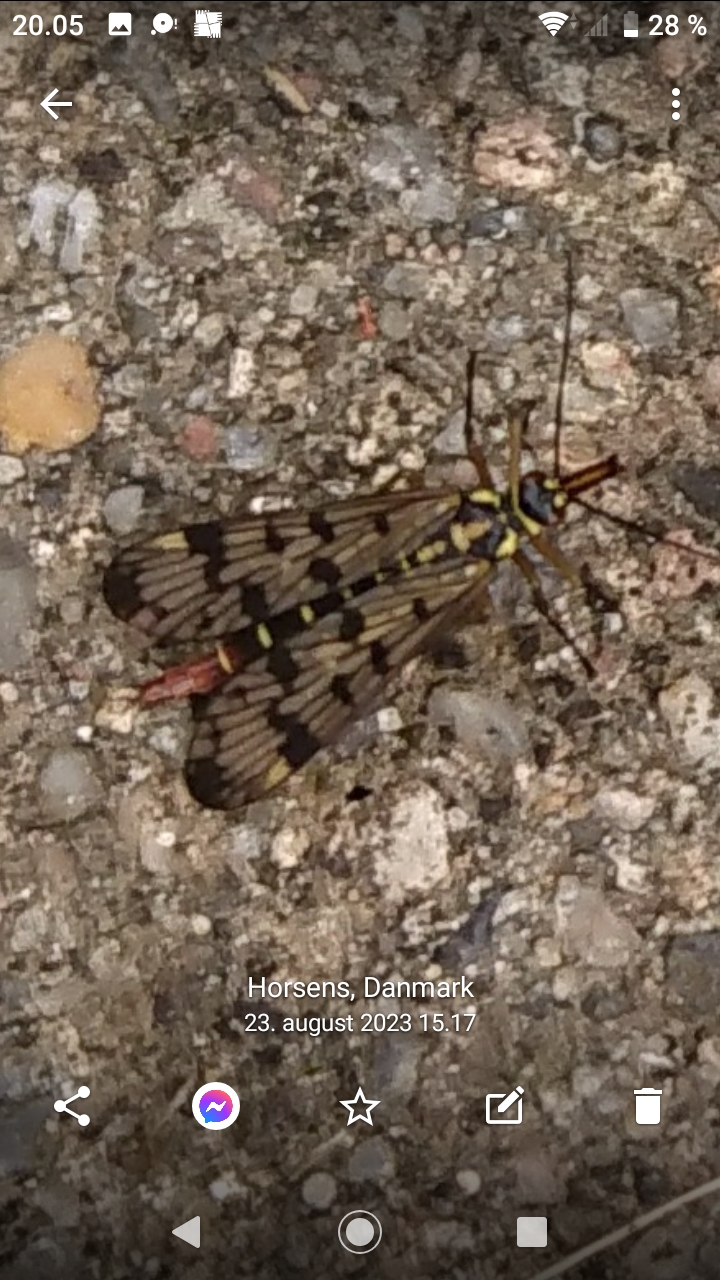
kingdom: Animalia
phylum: Arthropoda
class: Insecta
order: Mecoptera
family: Panorpidae
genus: Panorpa
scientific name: Panorpa
